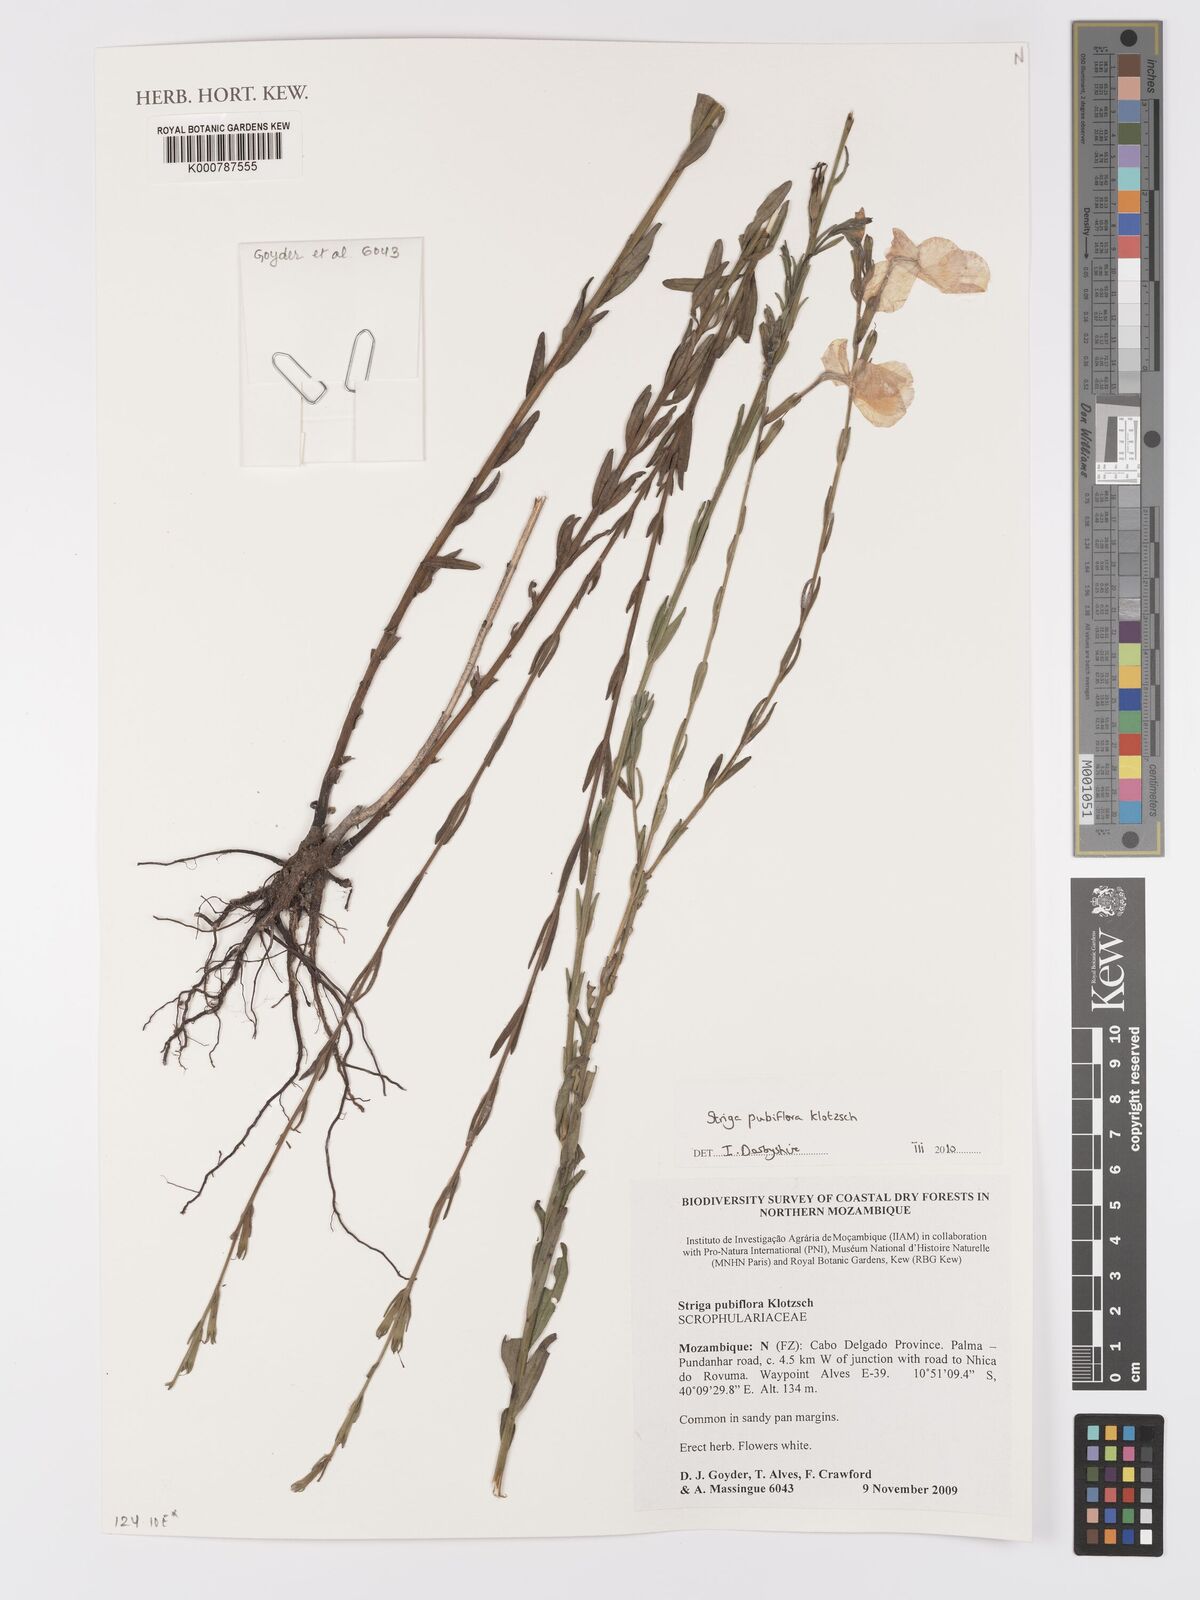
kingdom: Plantae
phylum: Tracheophyta
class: Liliopsida
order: Alismatales
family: Araceae
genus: Gosong
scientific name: Gosong brevipedunculata
